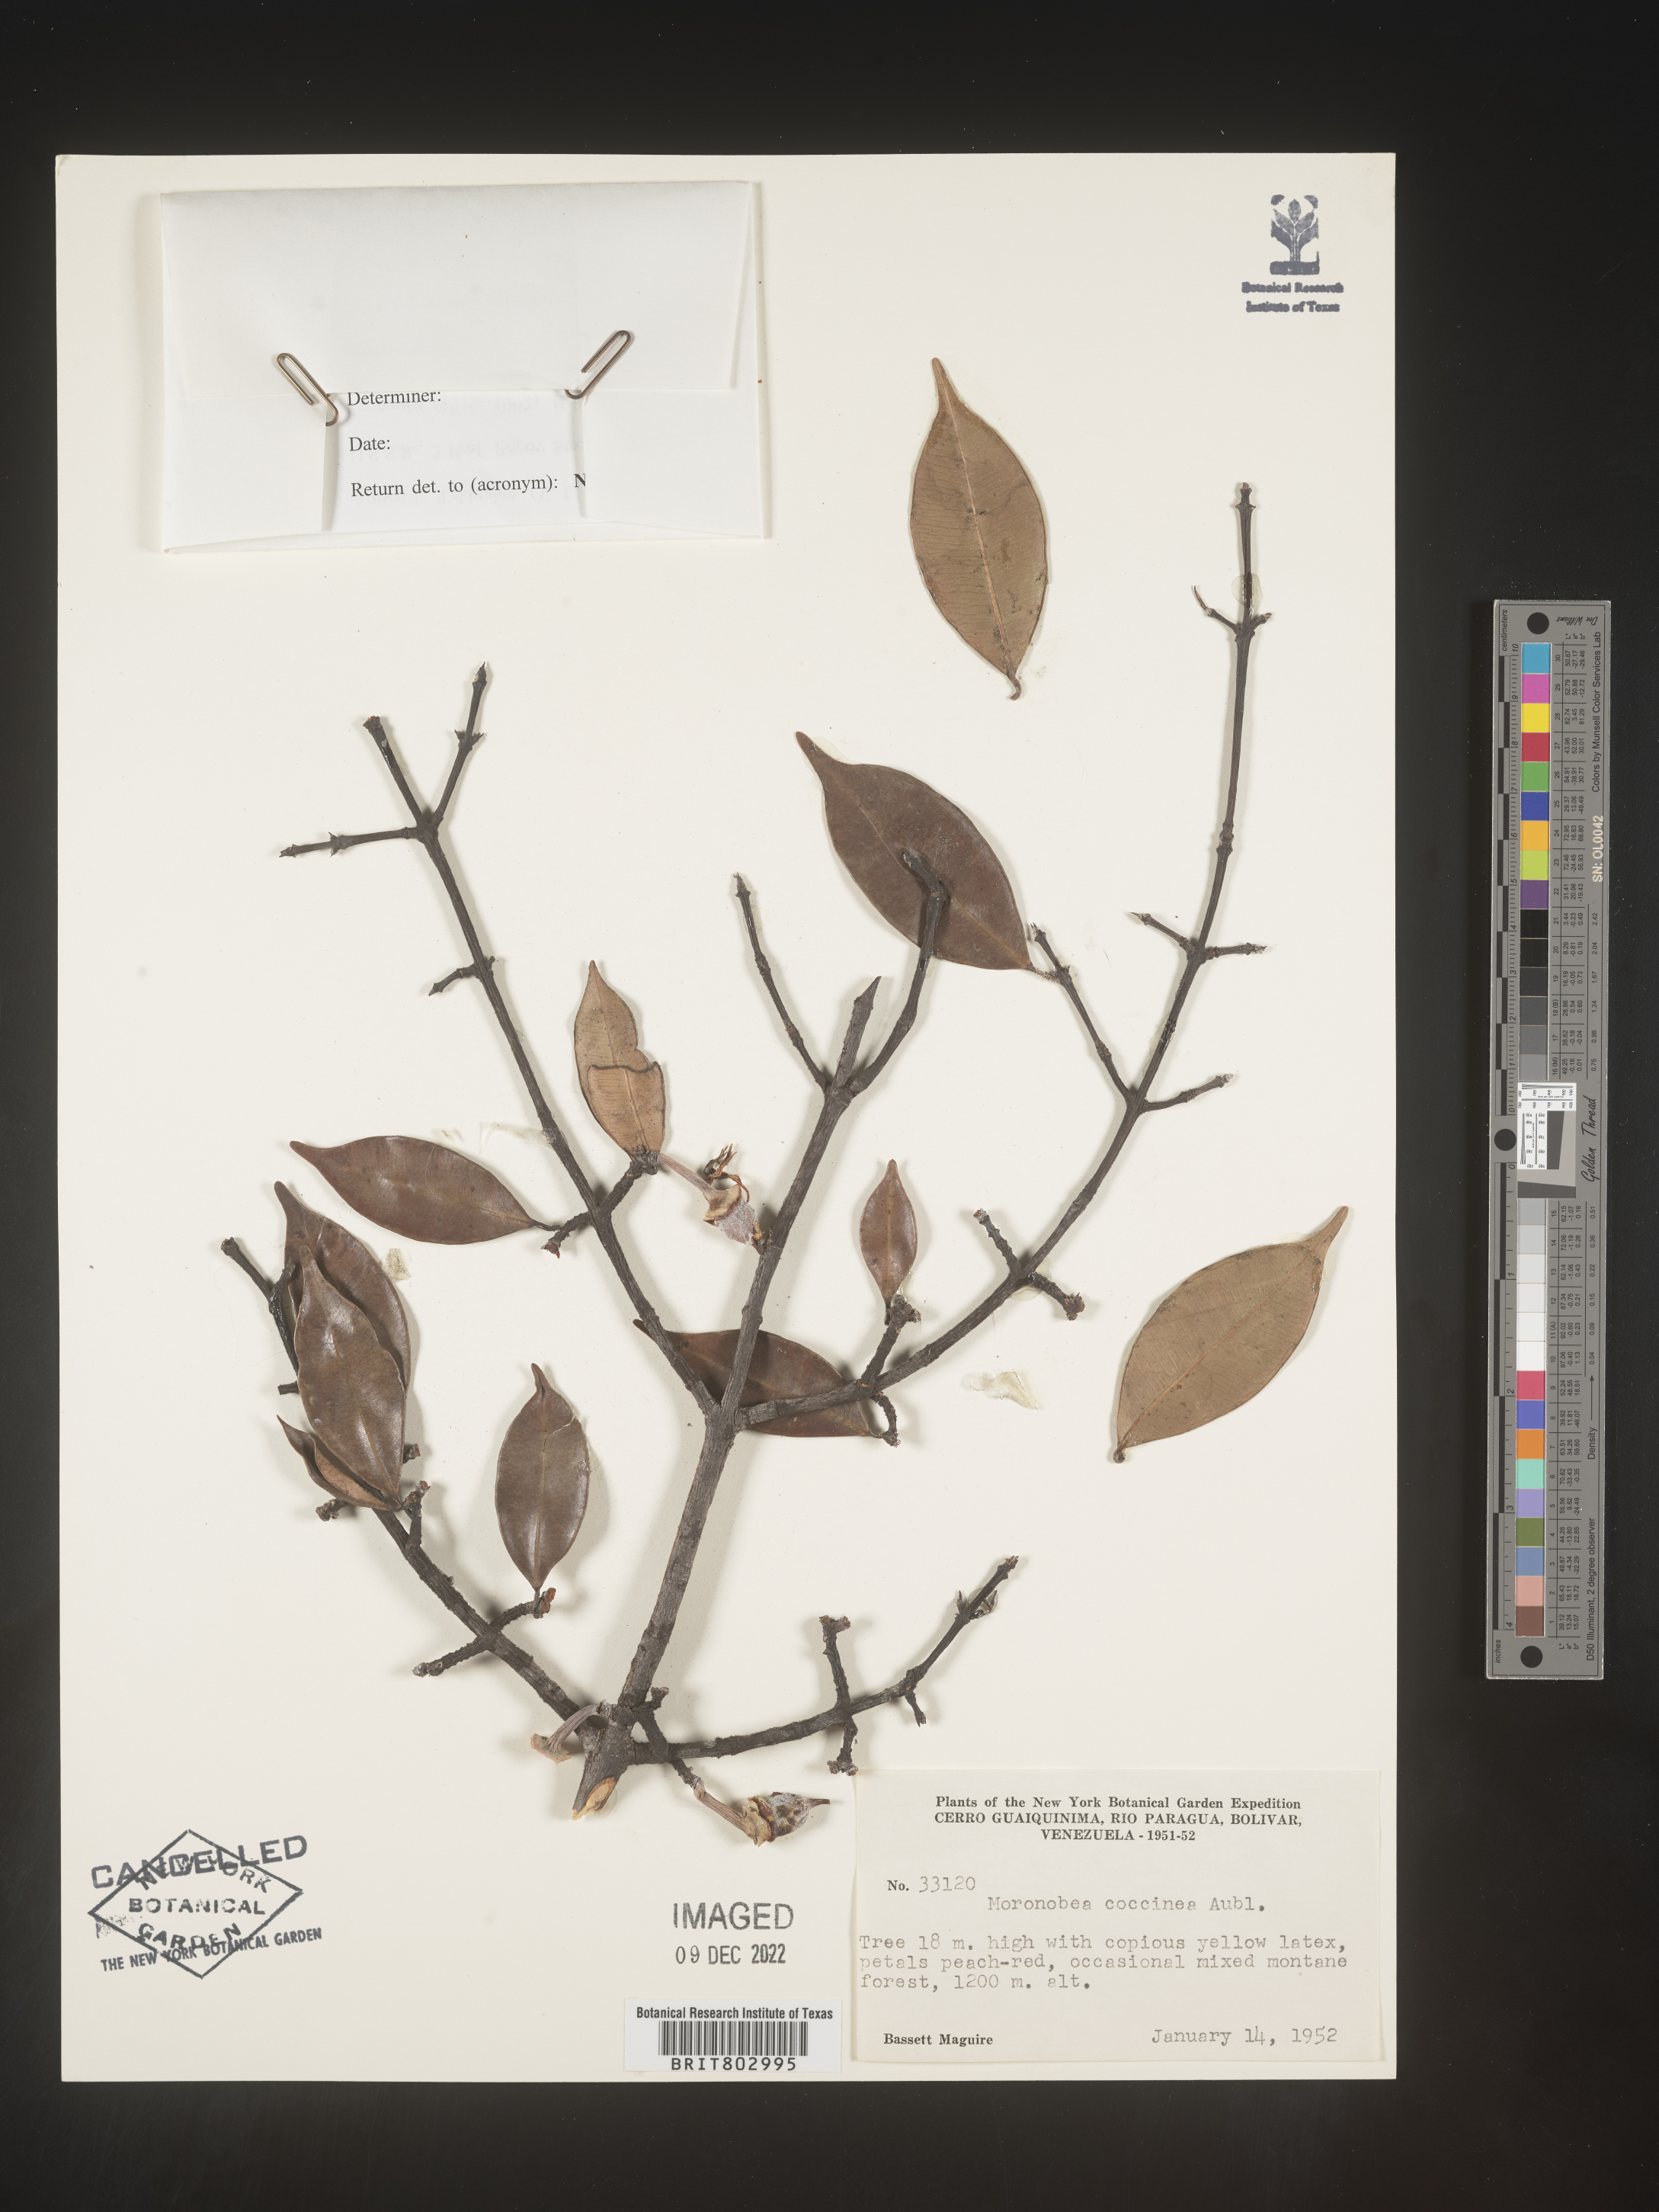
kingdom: Plantae
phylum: Tracheophyta
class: Magnoliopsida
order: Malpighiales
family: Clusiaceae
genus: Moronobea
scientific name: Moronobea
